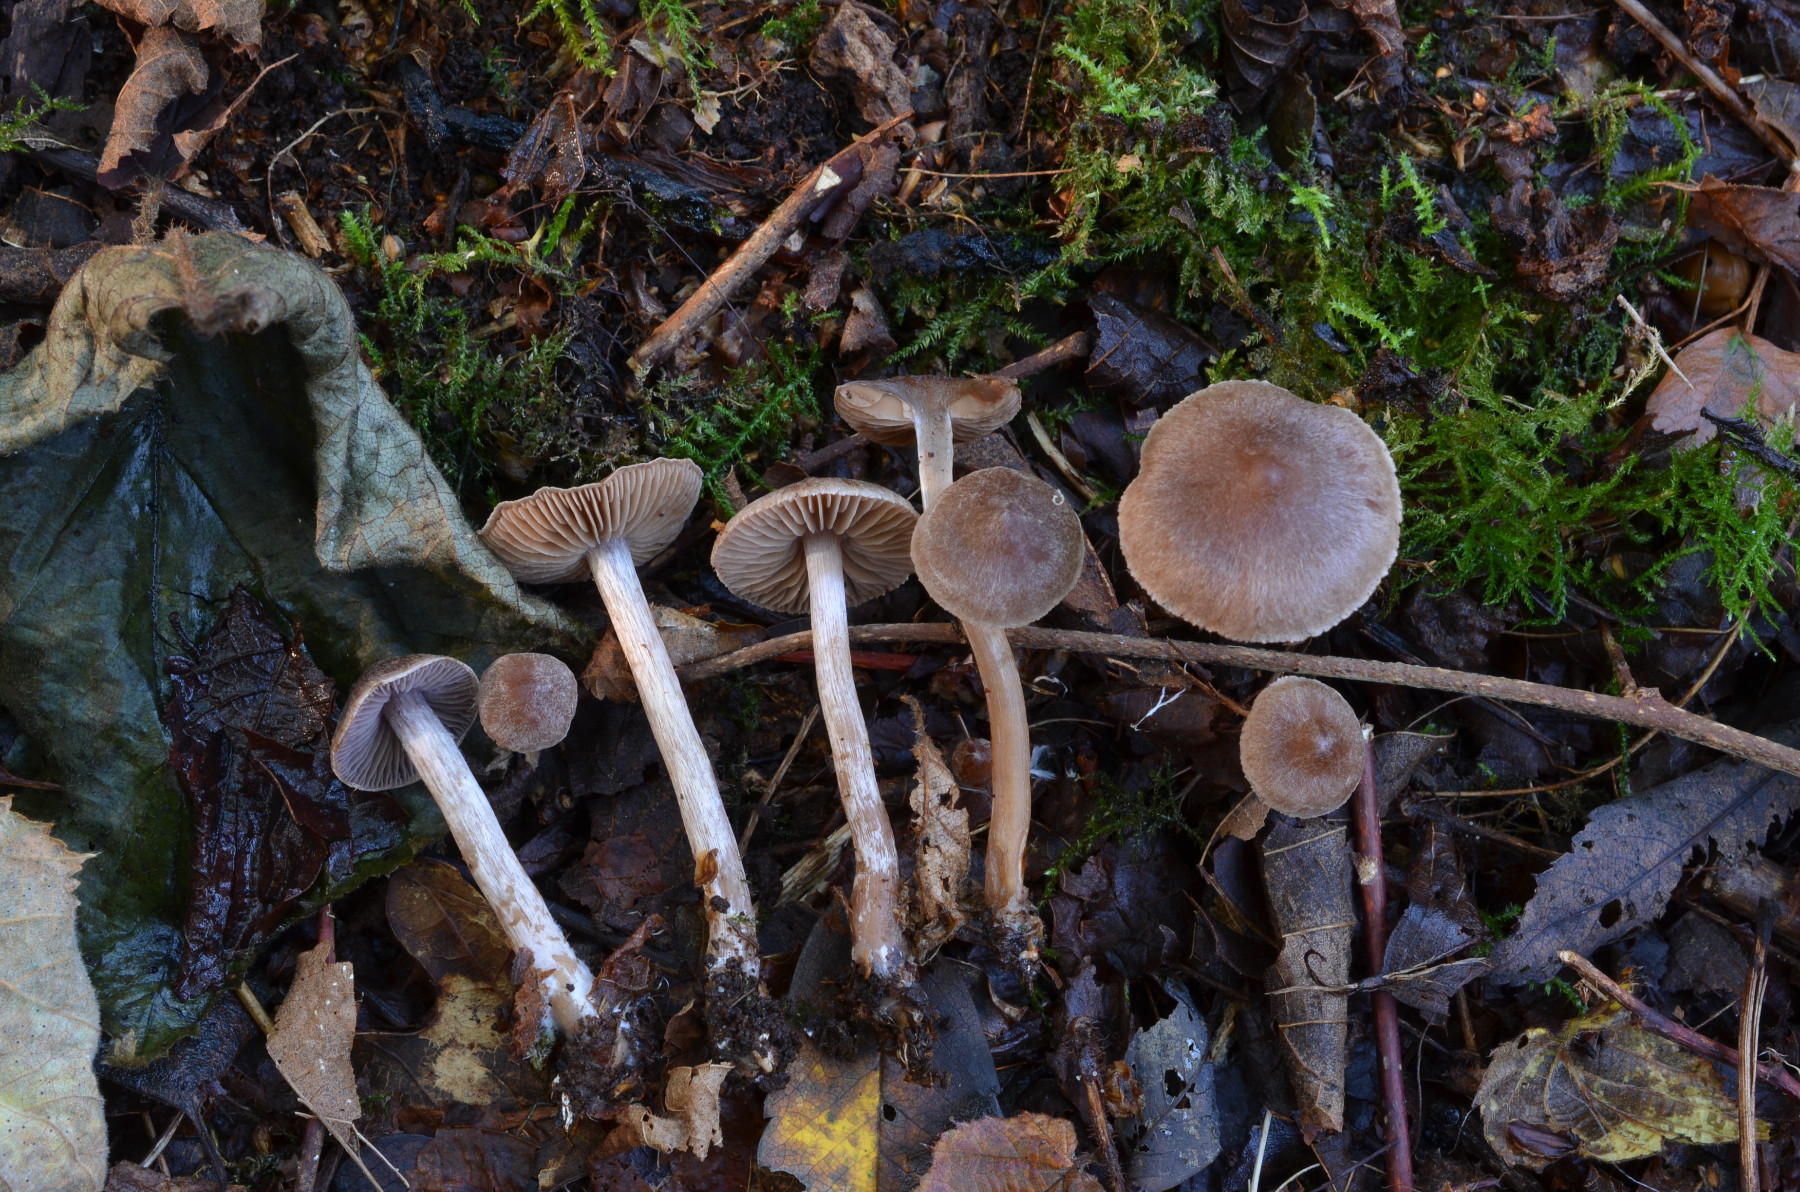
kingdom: Fungi
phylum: Basidiomycota
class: Agaricomycetes
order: Agaricales
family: Cortinariaceae
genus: Cortinarius
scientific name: Cortinarius praestigiosus
